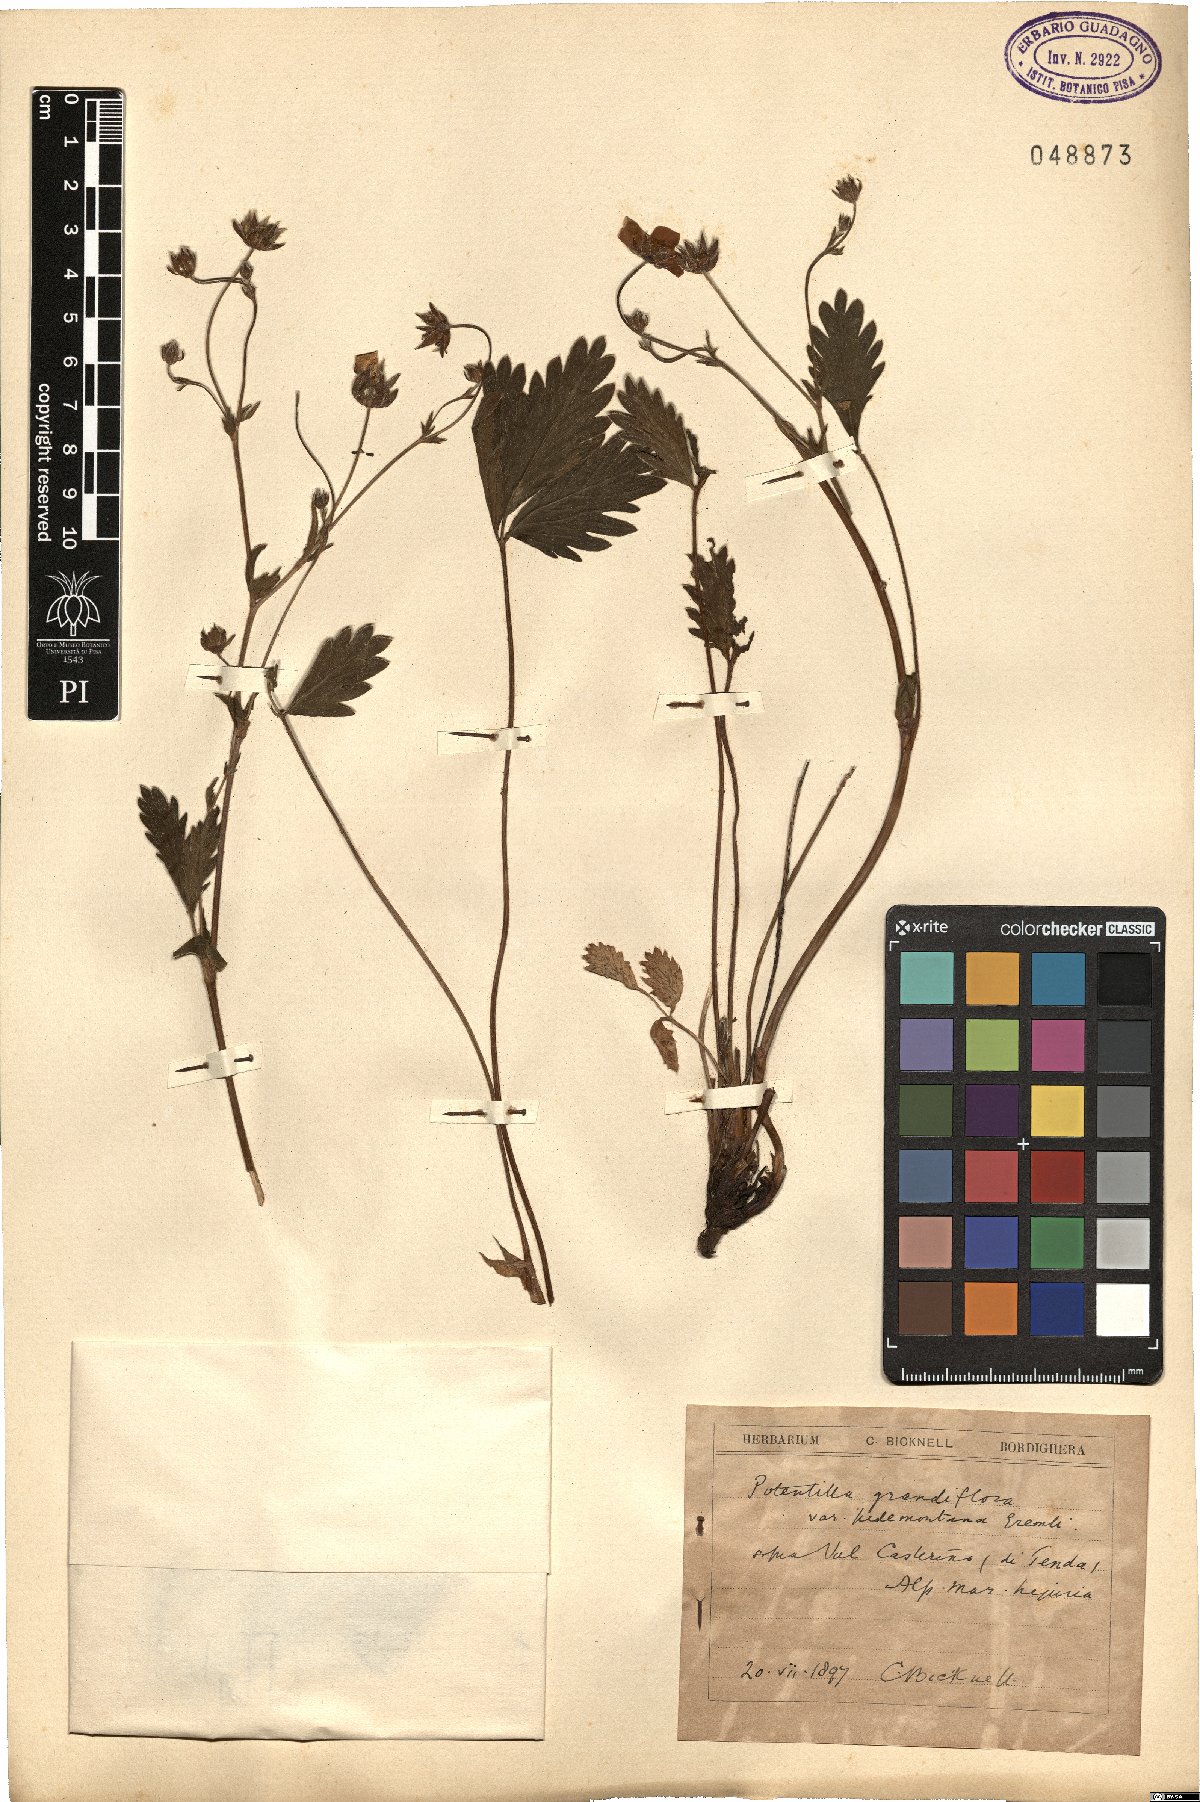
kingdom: Plantae
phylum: Tracheophyta
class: Magnoliopsida
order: Rosales
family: Rosaceae
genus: Potentilla
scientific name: Potentilla grandiflora
